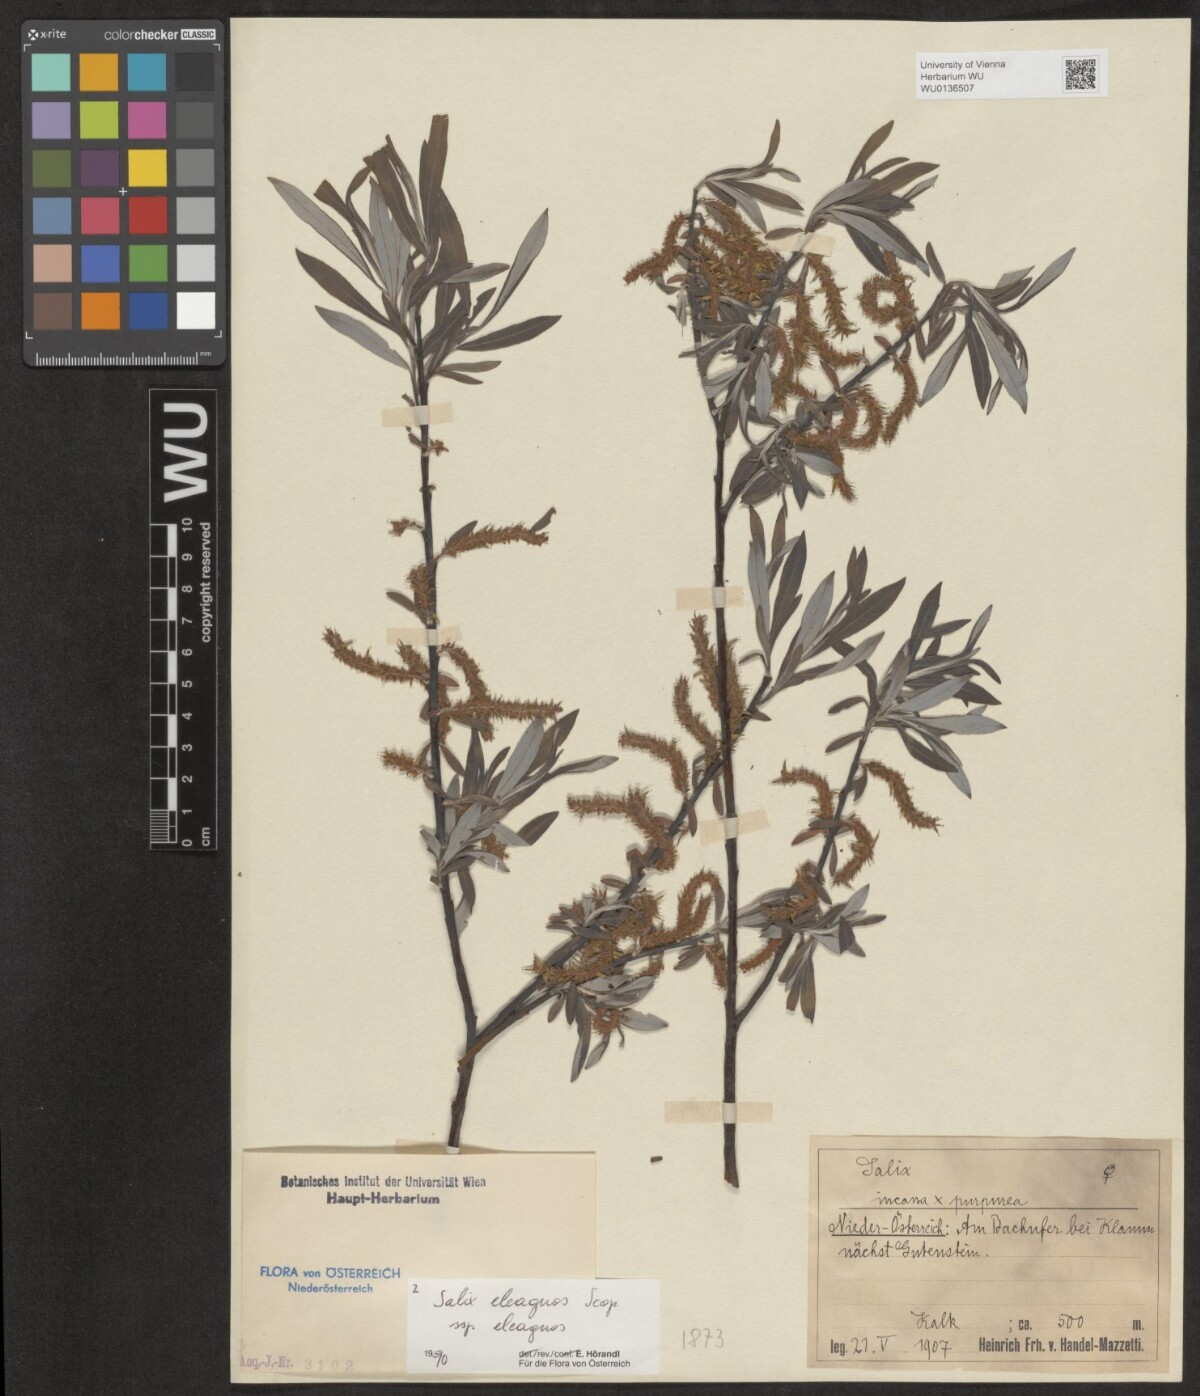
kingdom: Plantae
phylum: Tracheophyta
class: Magnoliopsida
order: Malpighiales
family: Salicaceae
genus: Salix
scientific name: Salix eleagnos
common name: Elaeagnus willow
